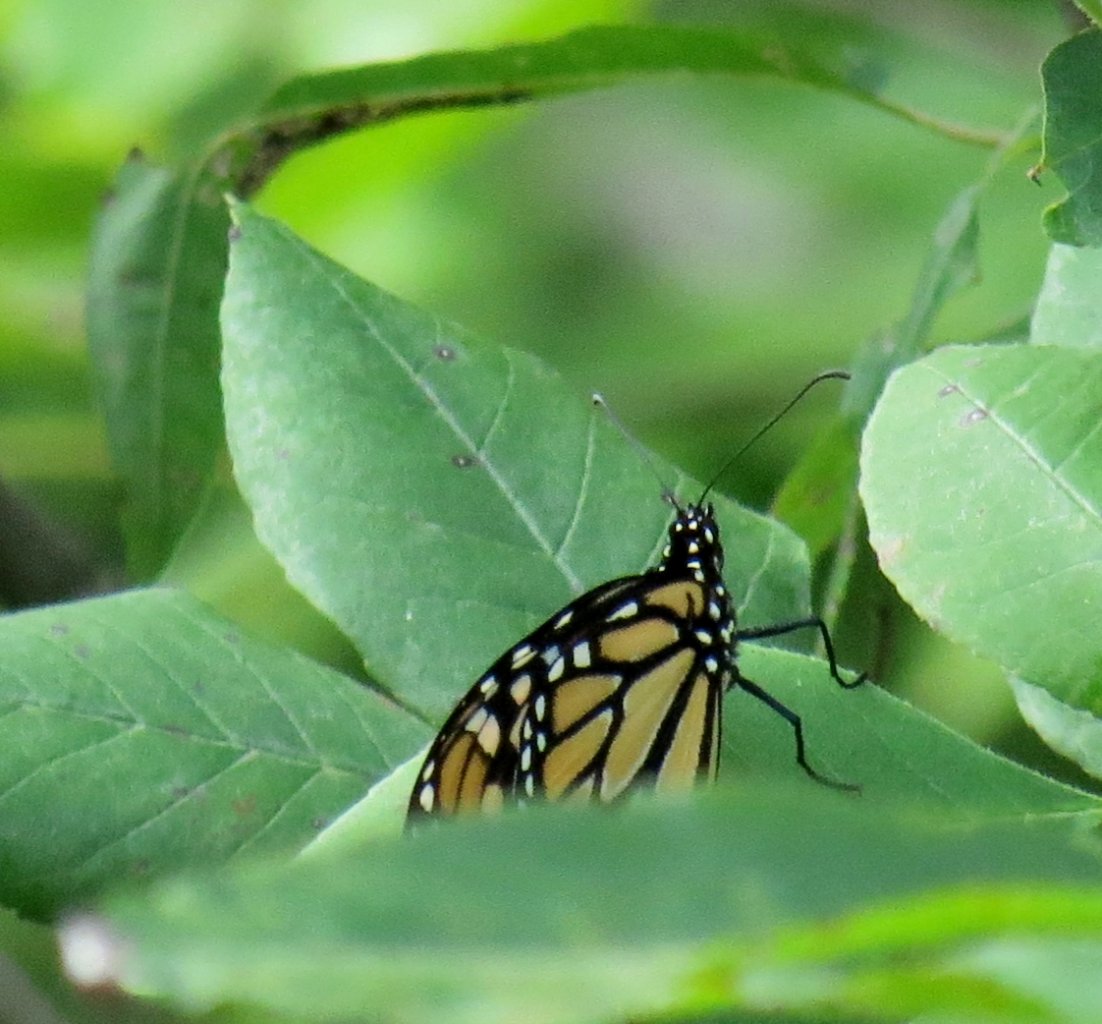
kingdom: Animalia
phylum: Arthropoda
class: Insecta
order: Lepidoptera
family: Nymphalidae
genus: Danaus
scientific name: Danaus plexippus
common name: Monarch
